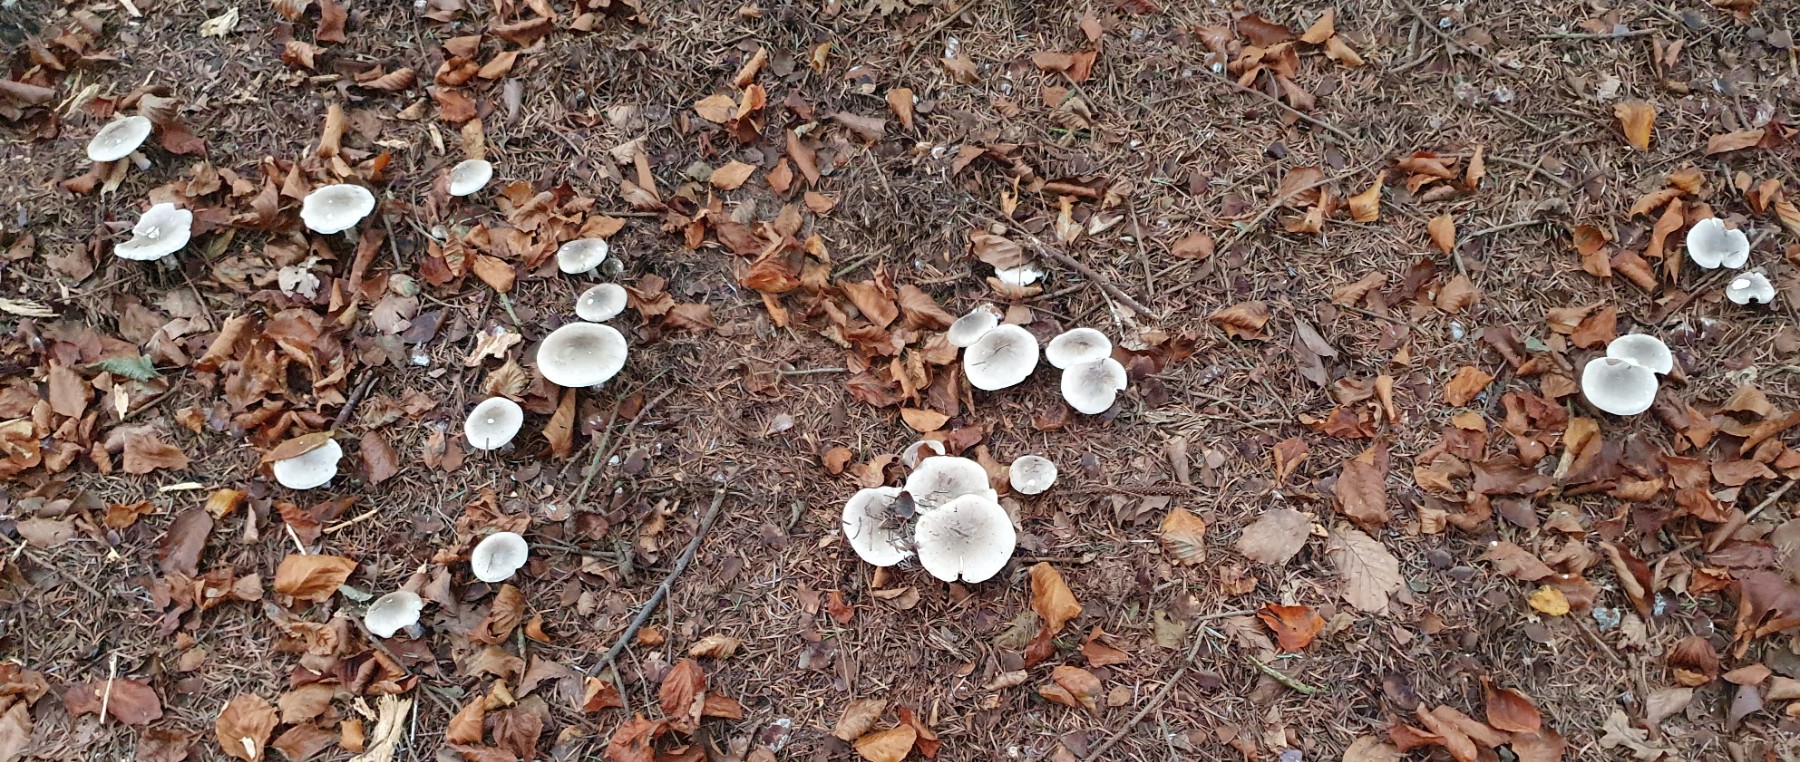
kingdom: Fungi
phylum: Basidiomycota
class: Agaricomycetes
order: Agaricales
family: Tricholomataceae
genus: Clitocybe
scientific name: Clitocybe nebularis
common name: tåge-tragthat
